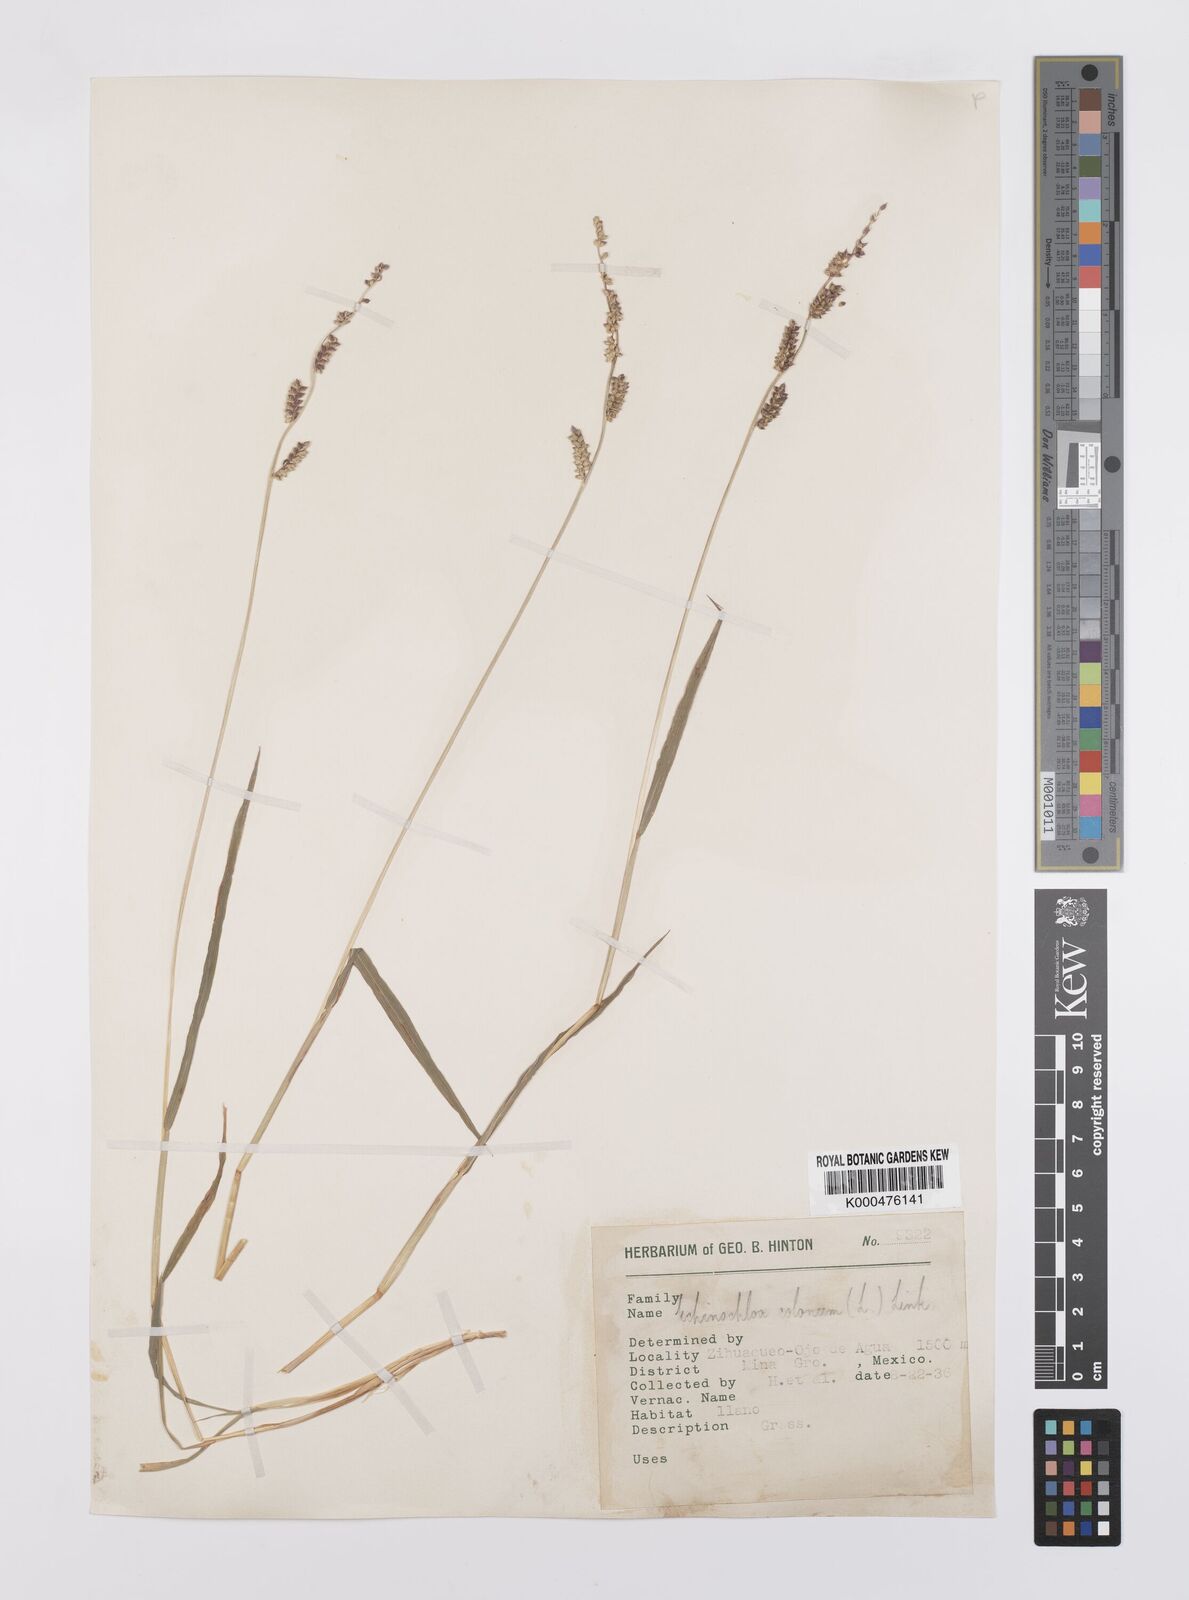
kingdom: Plantae
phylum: Tracheophyta
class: Liliopsida
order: Poales
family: Poaceae
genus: Echinochloa
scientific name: Echinochloa colonum
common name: Jungle rice
